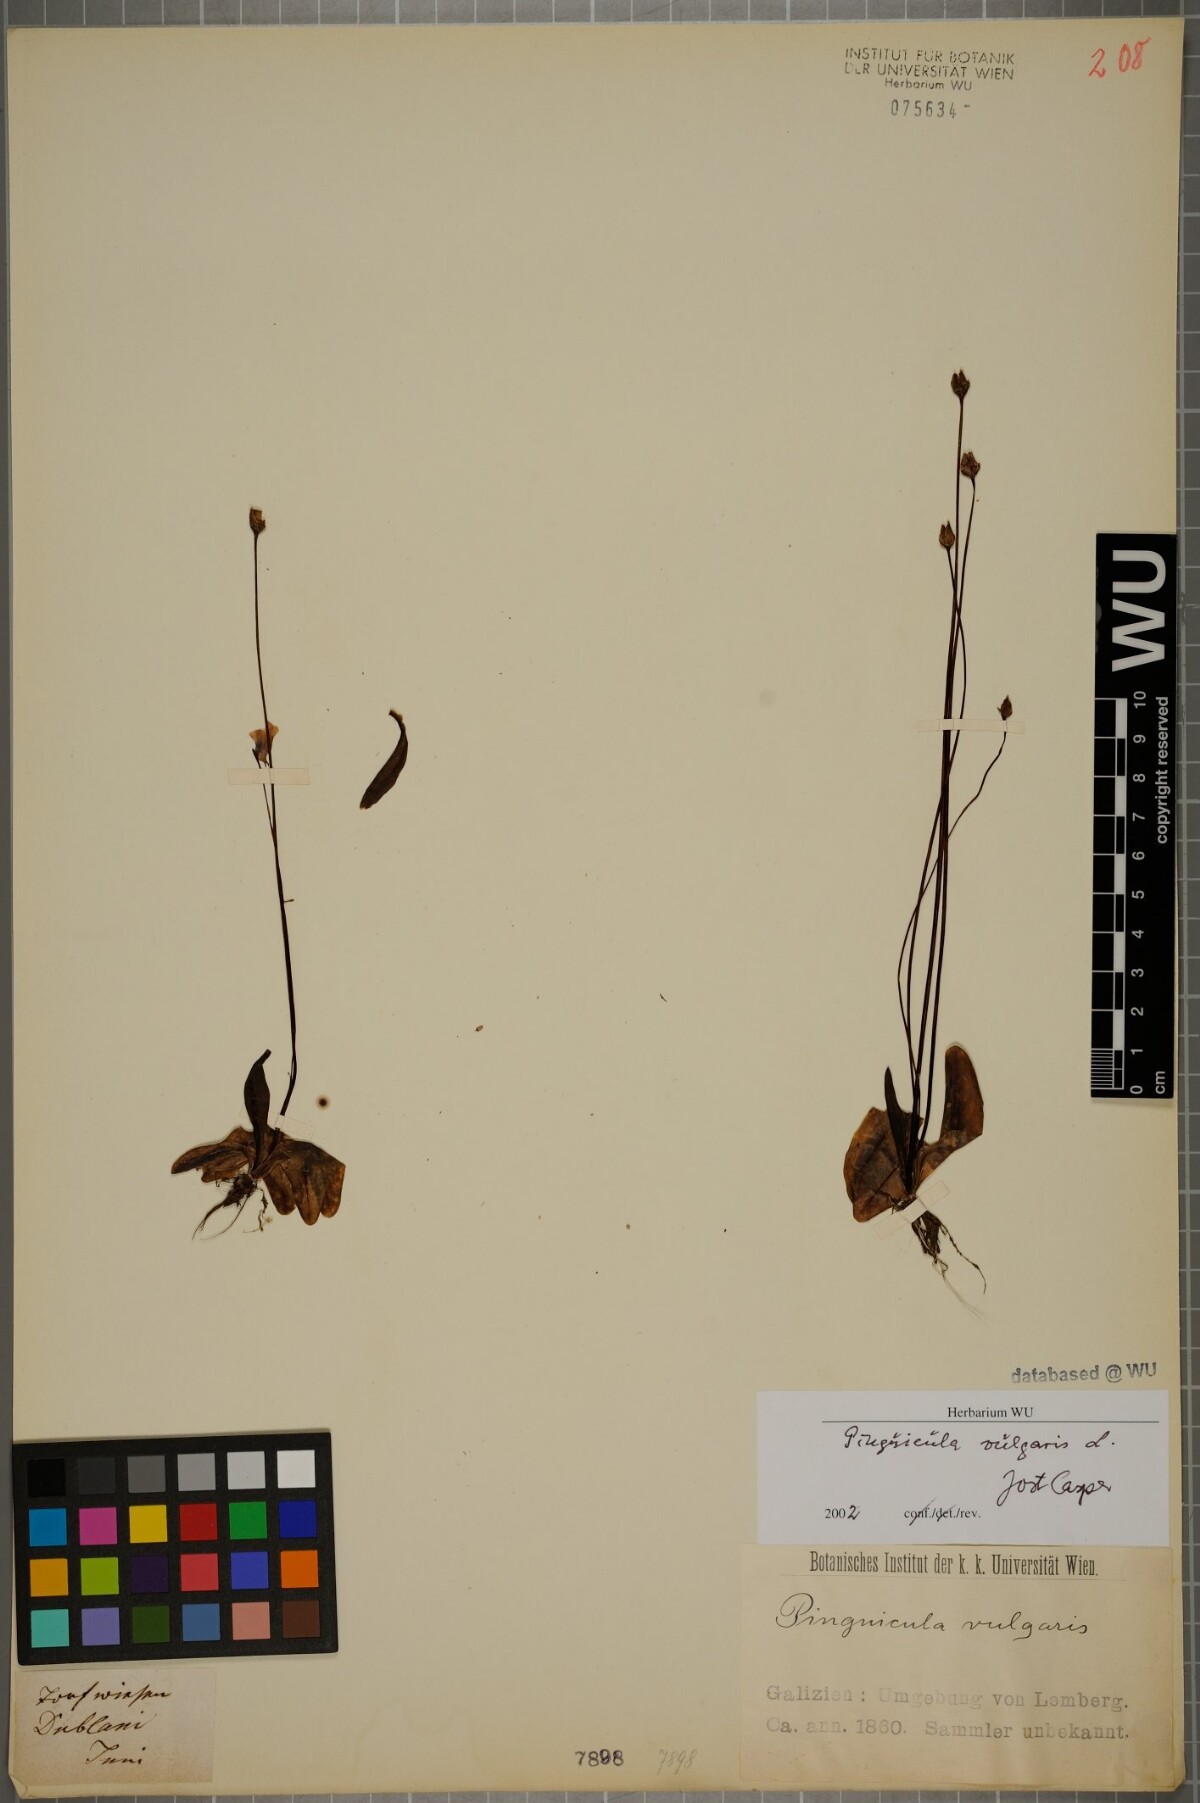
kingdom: Plantae
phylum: Tracheophyta
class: Magnoliopsida
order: Lamiales
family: Lentibulariaceae
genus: Pinguicula
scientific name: Pinguicula vulgaris
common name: Common butterwort
